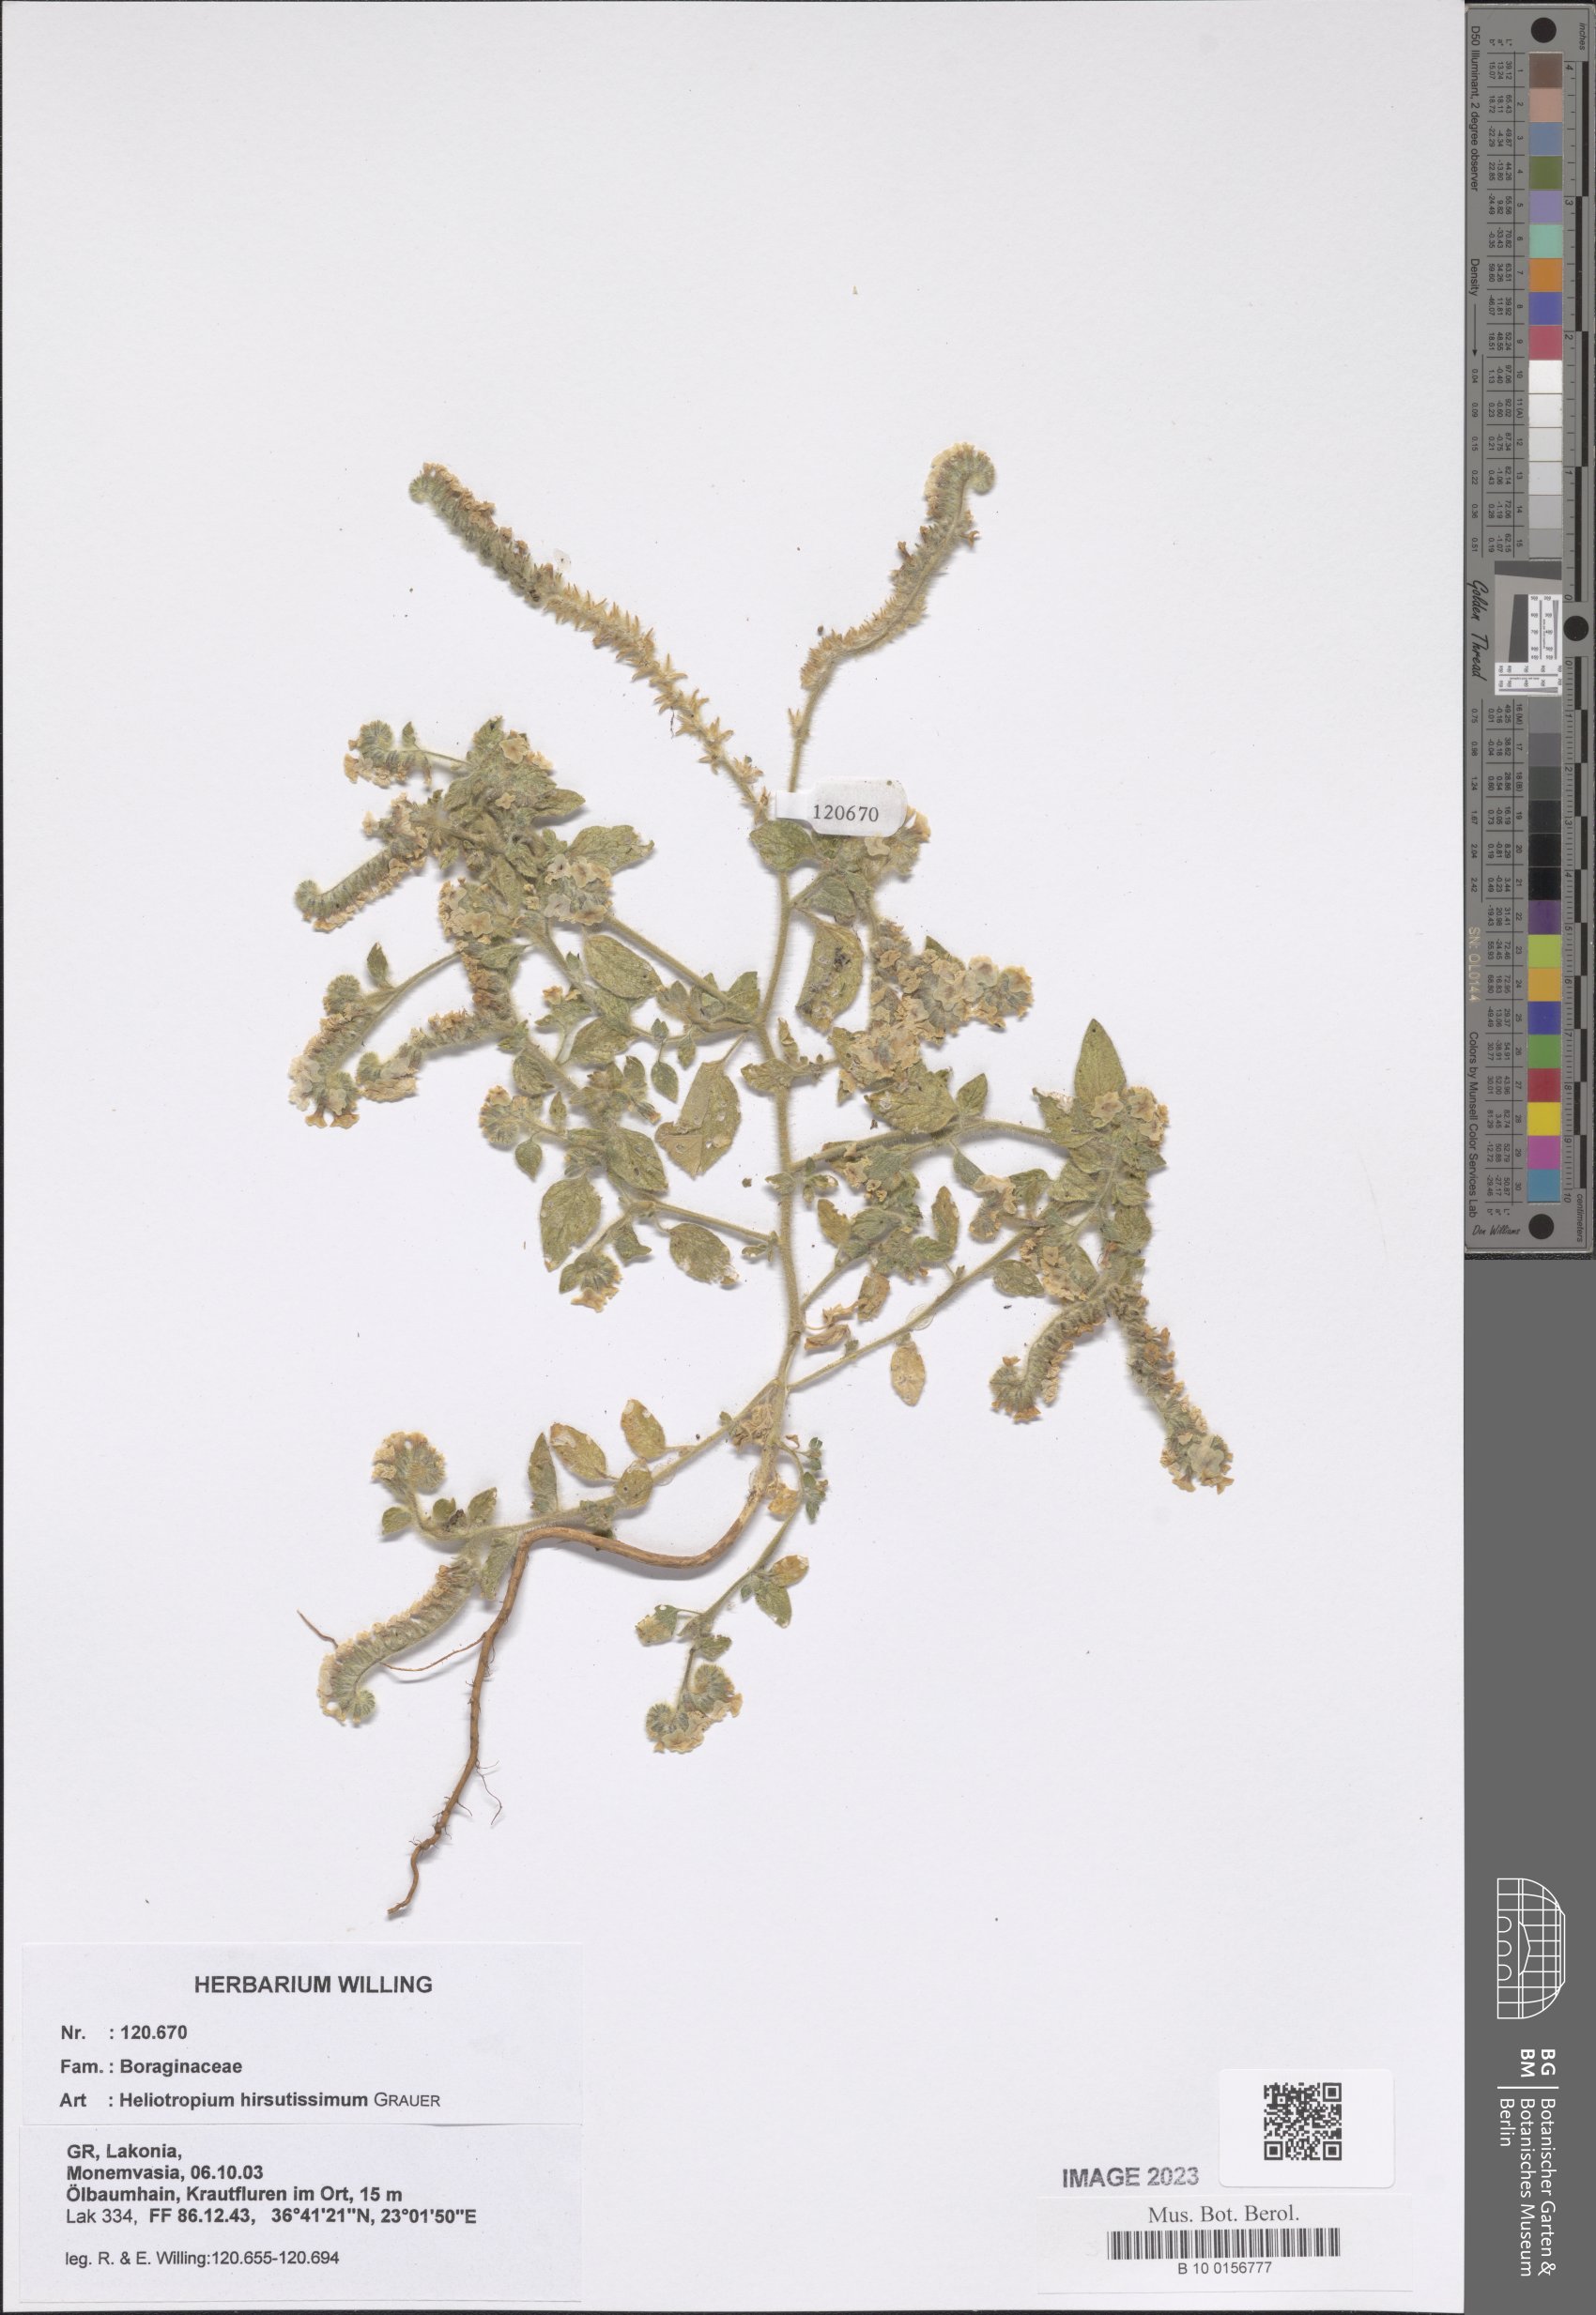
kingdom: Plantae
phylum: Tracheophyta
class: Magnoliopsida
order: Boraginales
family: Heliotropiaceae
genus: Heliotropium
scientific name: Heliotropium hirsutissimum
